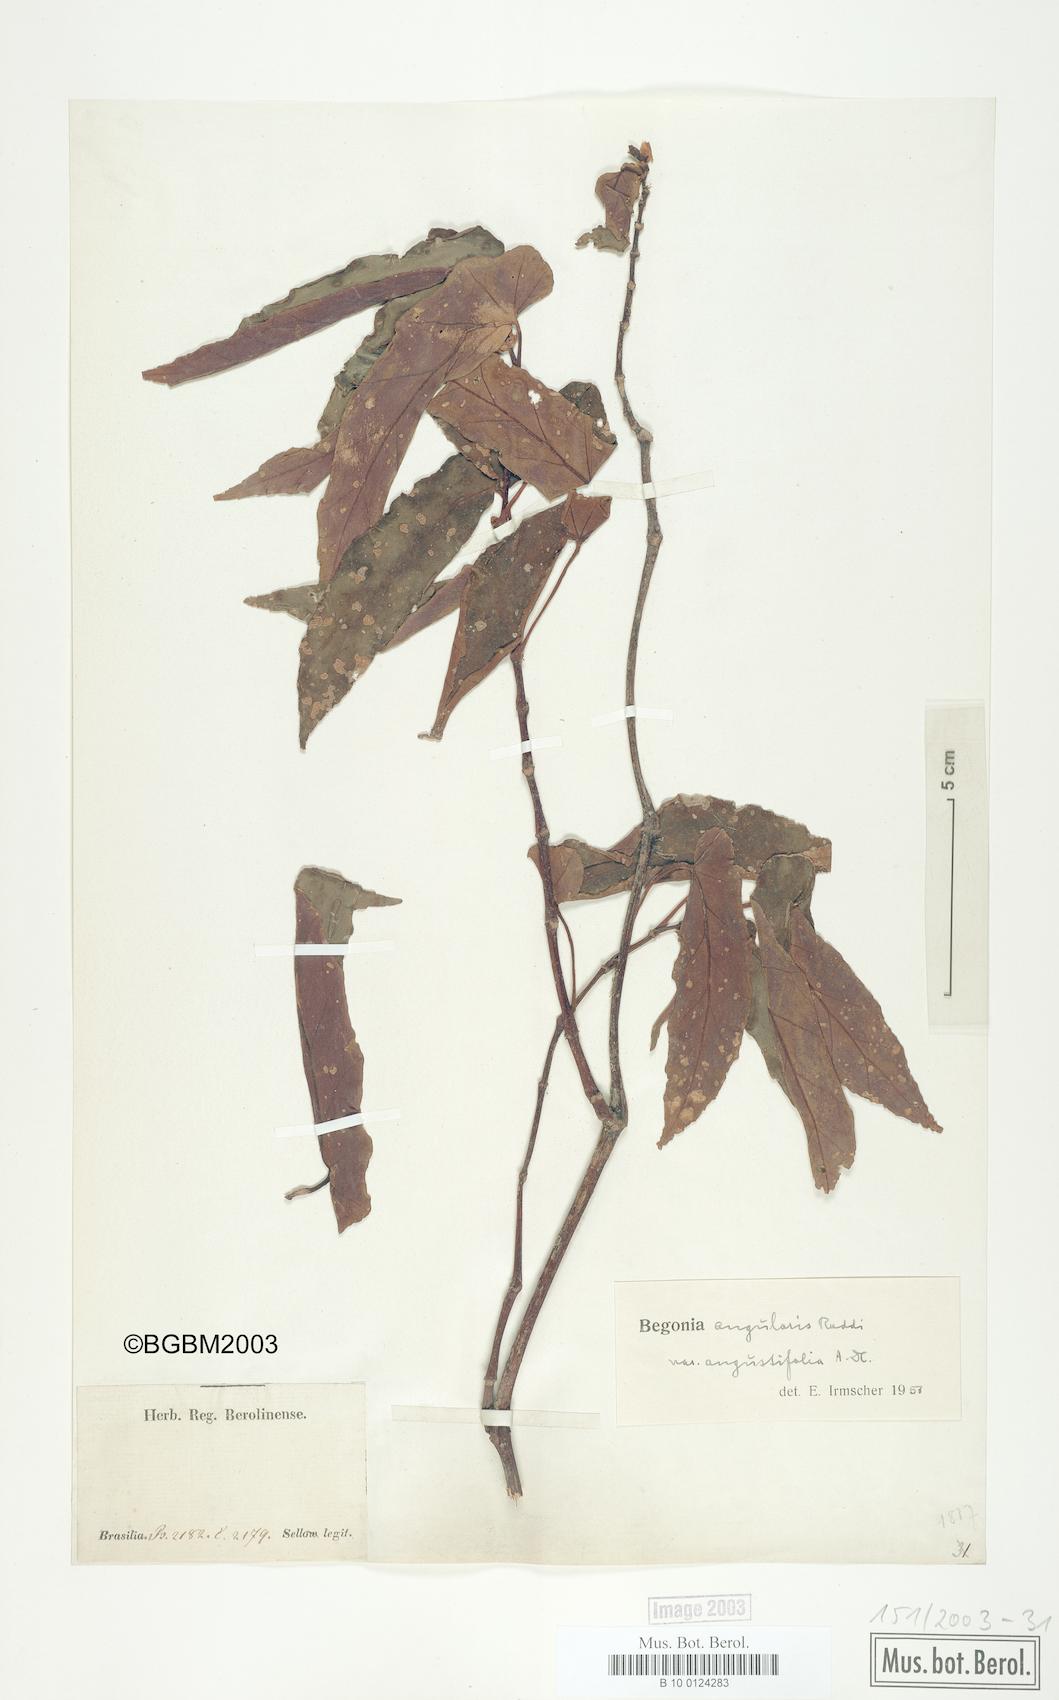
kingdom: Plantae
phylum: Tracheophyta
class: Magnoliopsida
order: Cucurbitales
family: Begoniaceae
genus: Begonia
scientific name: Begonia angularis
